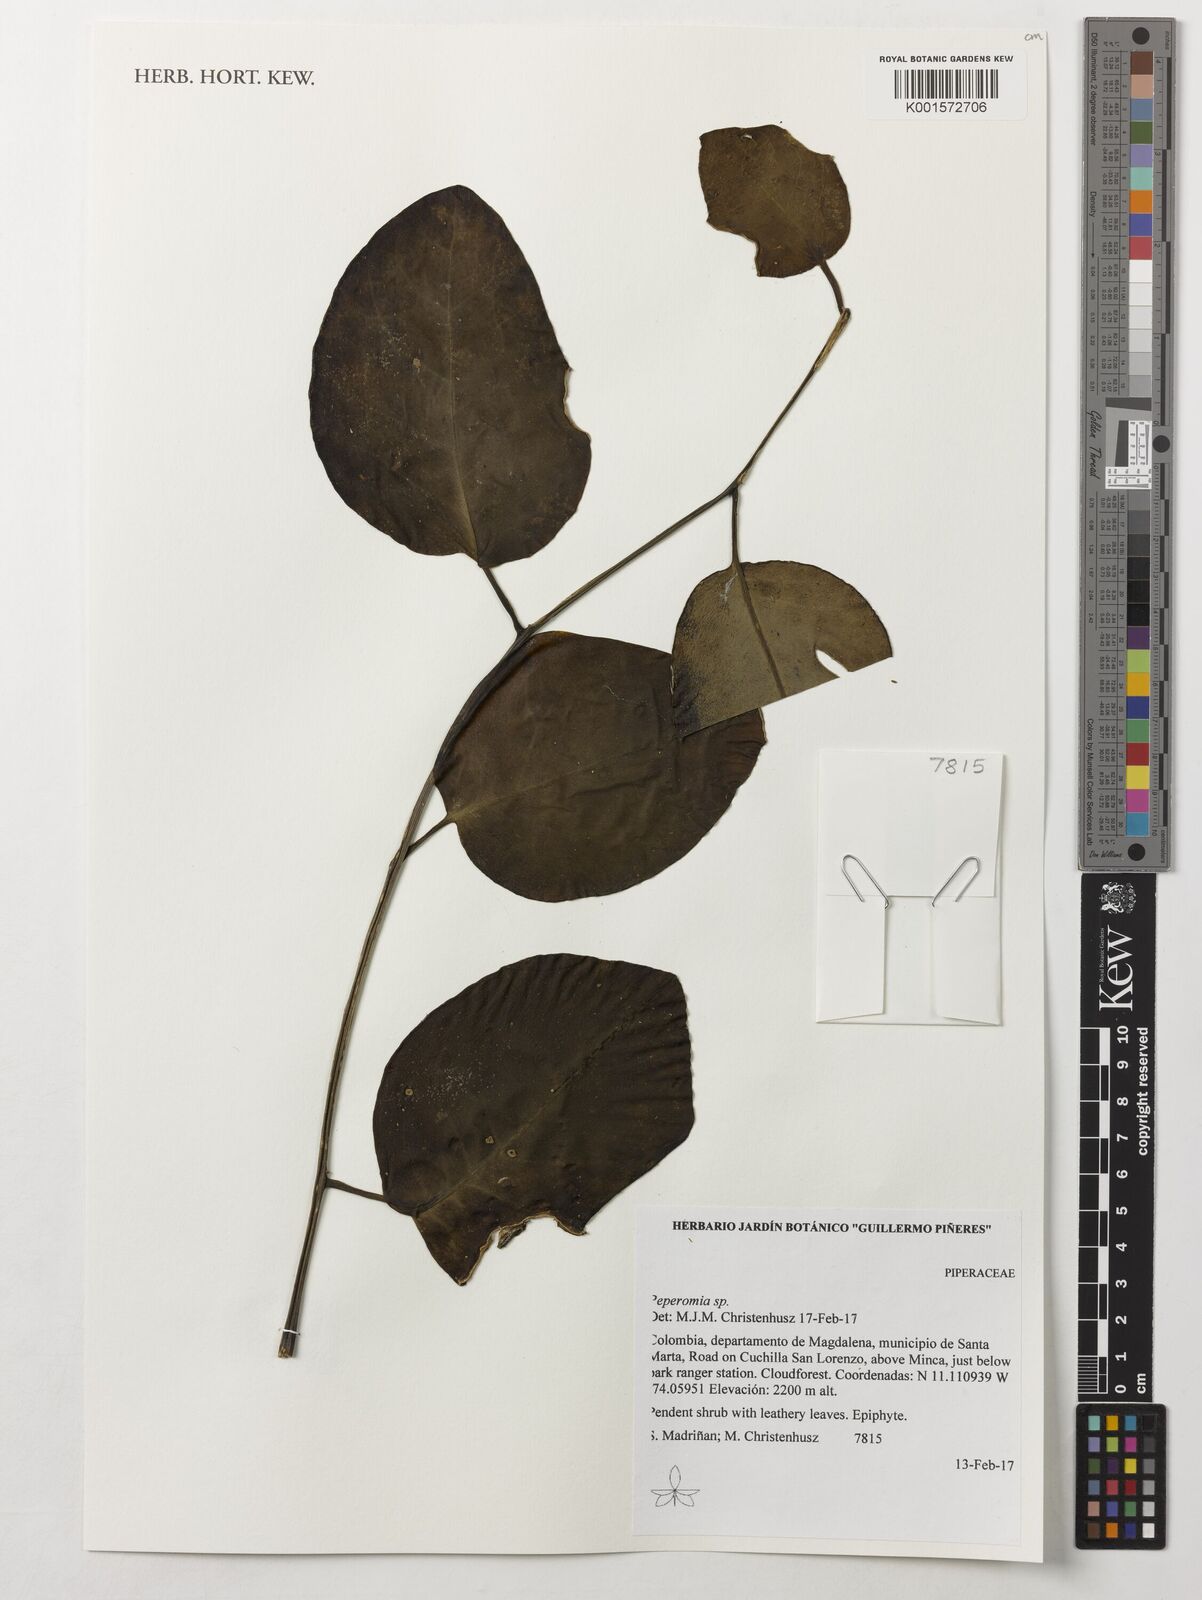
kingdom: Plantae
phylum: Tracheophyta
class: Magnoliopsida
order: Piperales
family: Piperaceae
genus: Peperomia
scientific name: Peperomia
